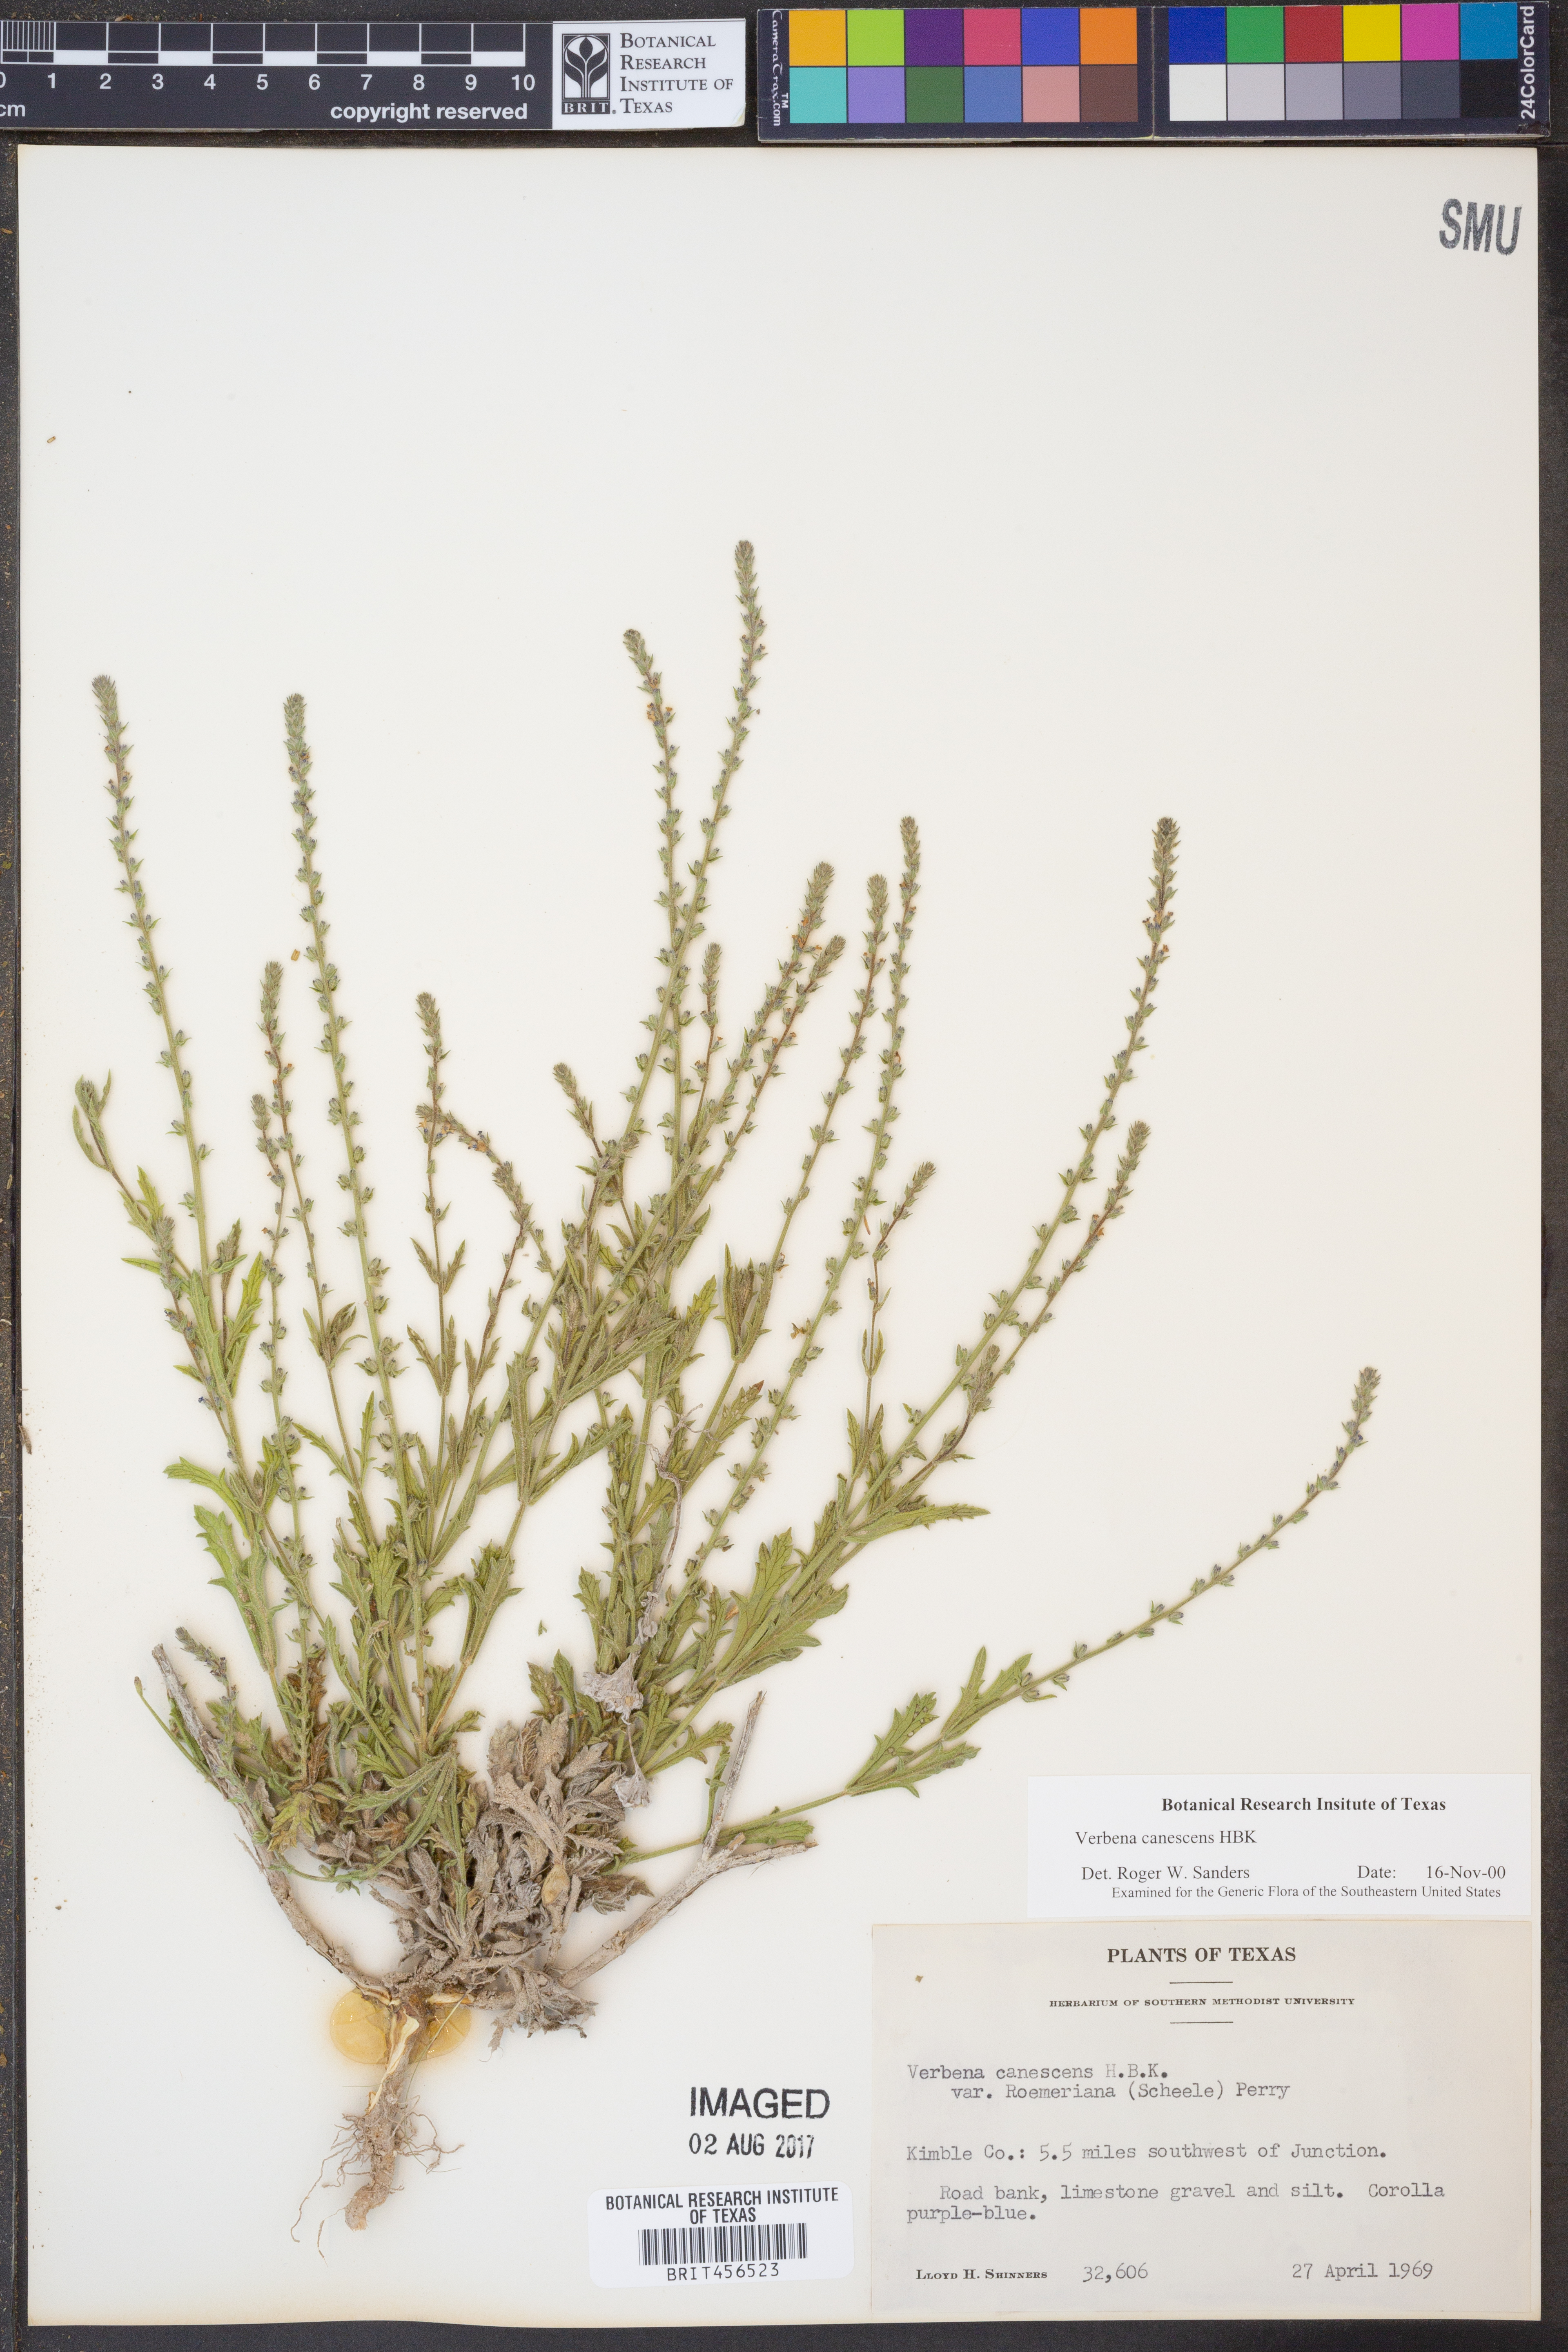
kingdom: Plantae
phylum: Tracheophyta
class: Magnoliopsida
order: Lamiales
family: Verbenaceae
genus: Verbena
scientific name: Verbena canescens
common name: Gray vervain
